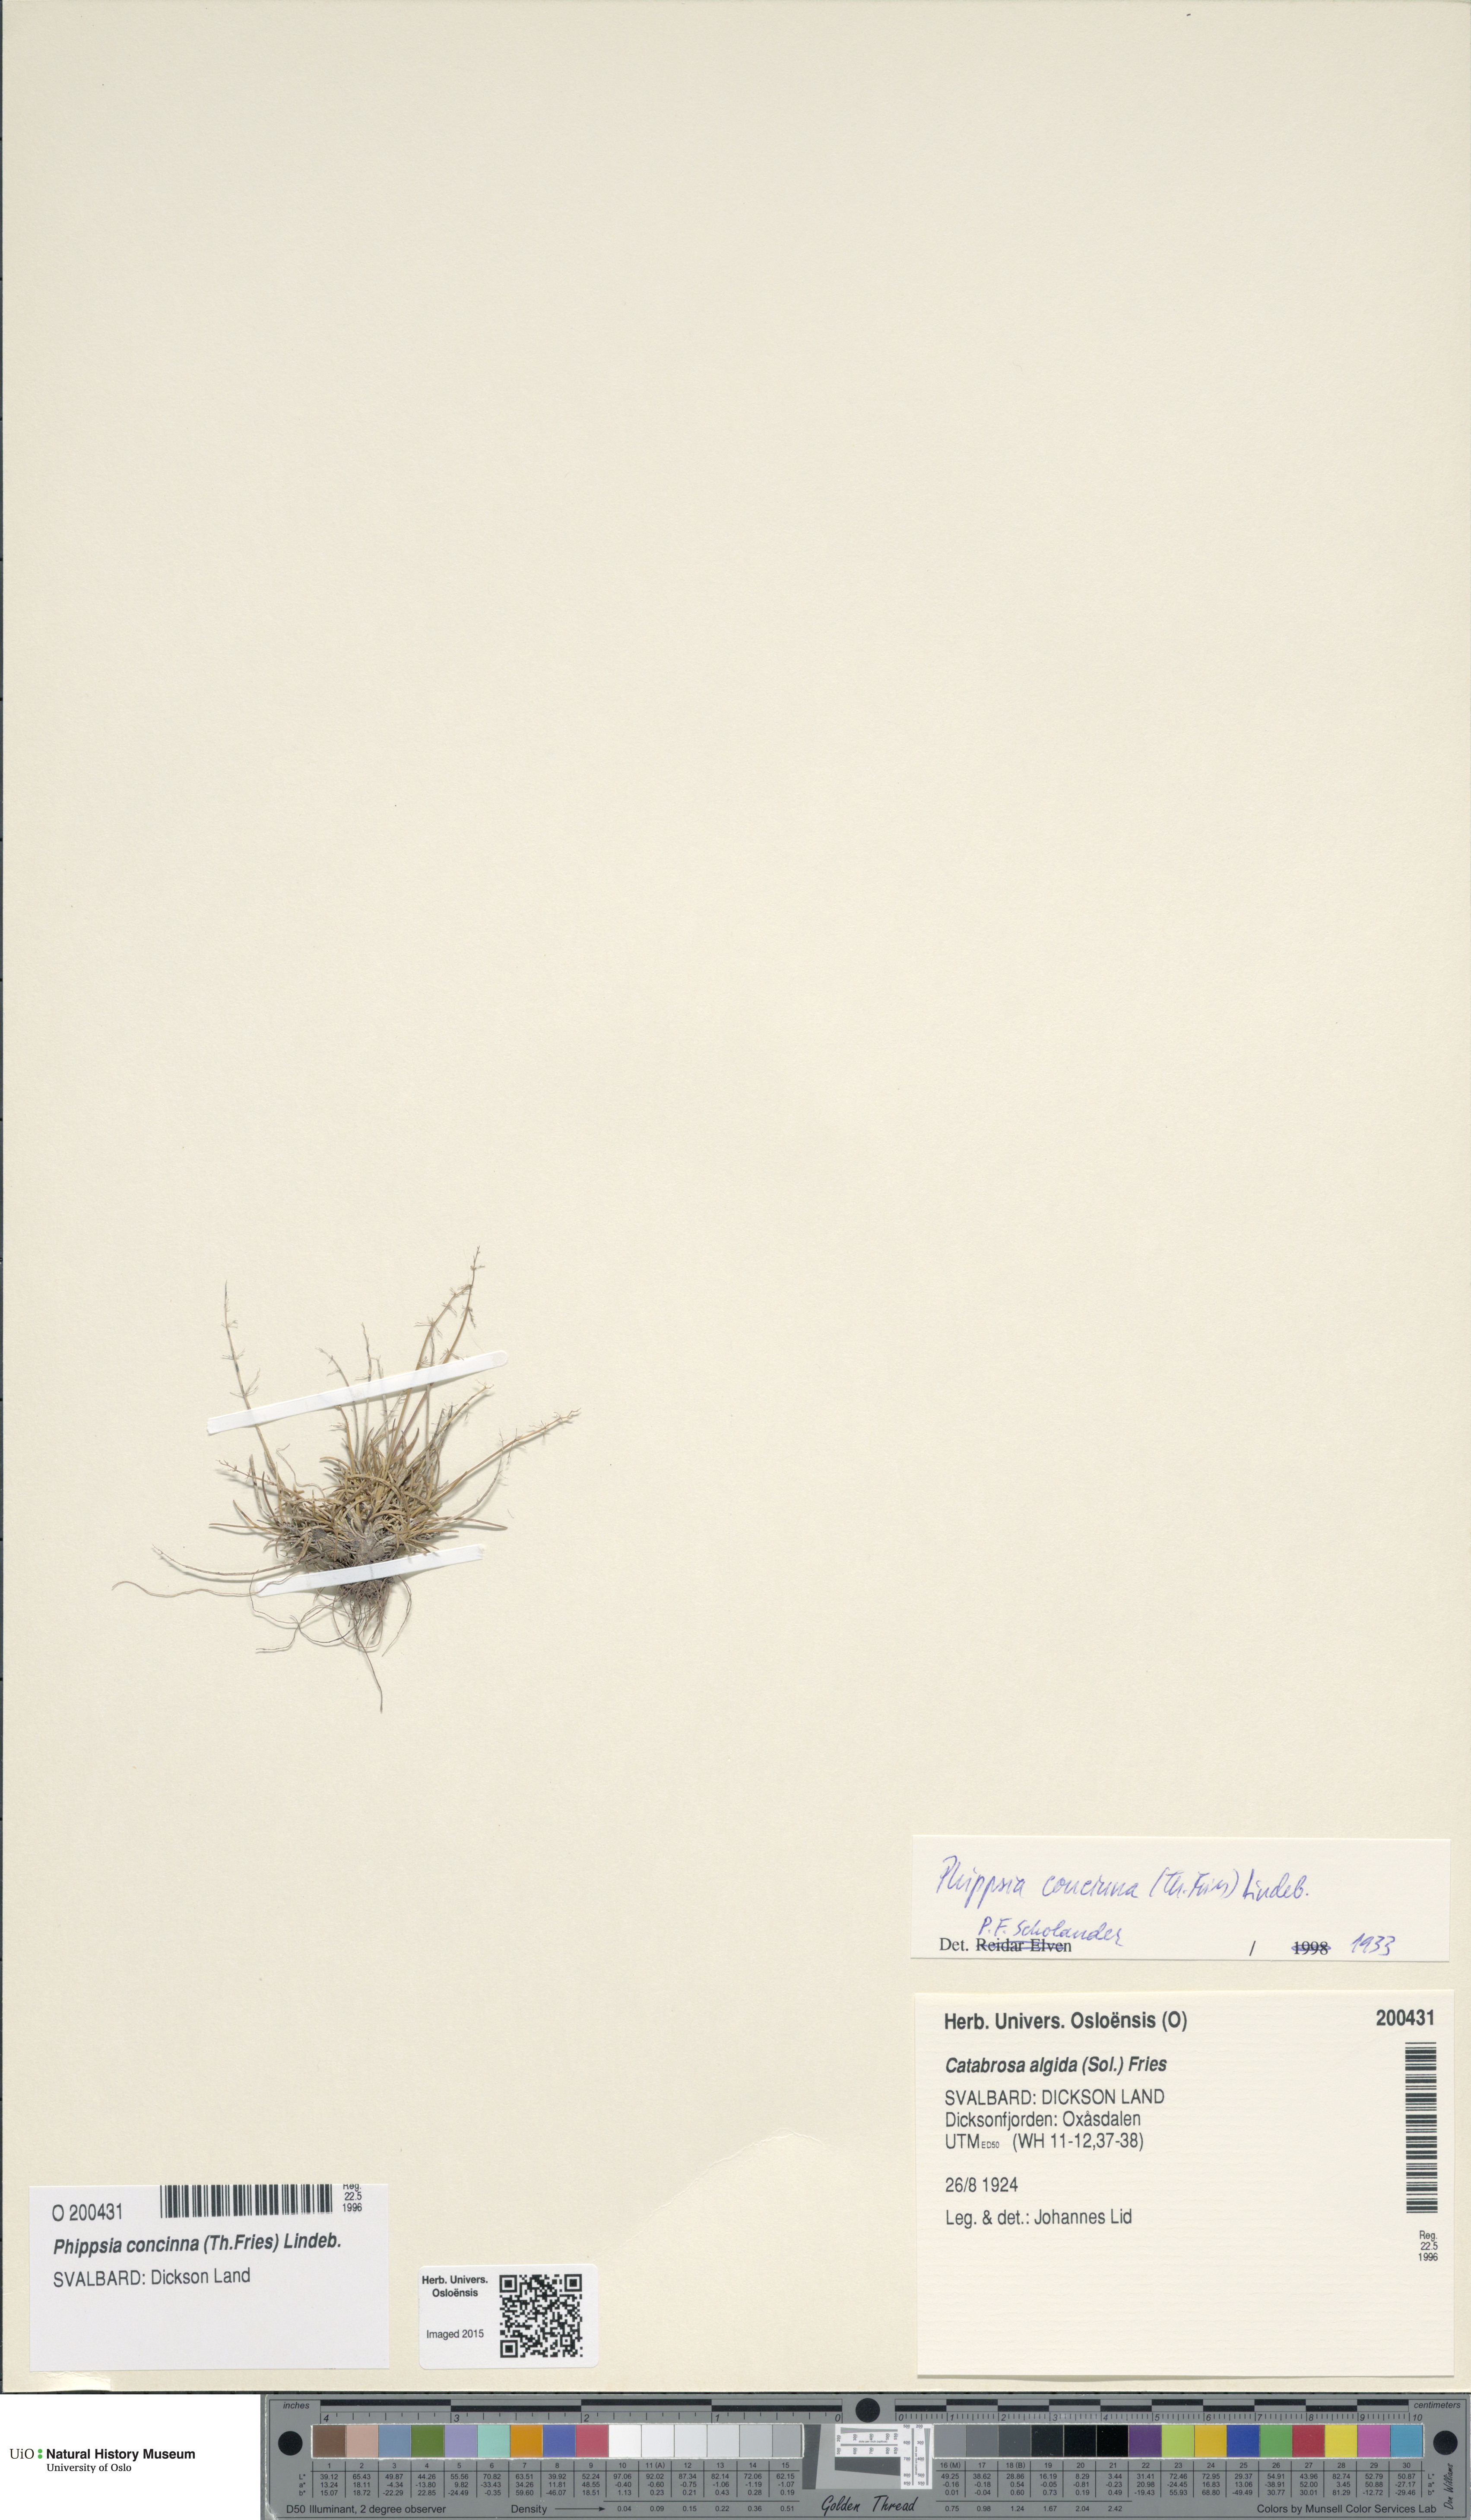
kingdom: Plantae
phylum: Tracheophyta
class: Liliopsida
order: Poales
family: Poaceae
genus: Phippsia
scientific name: Phippsia concinna
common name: Snowgrass
